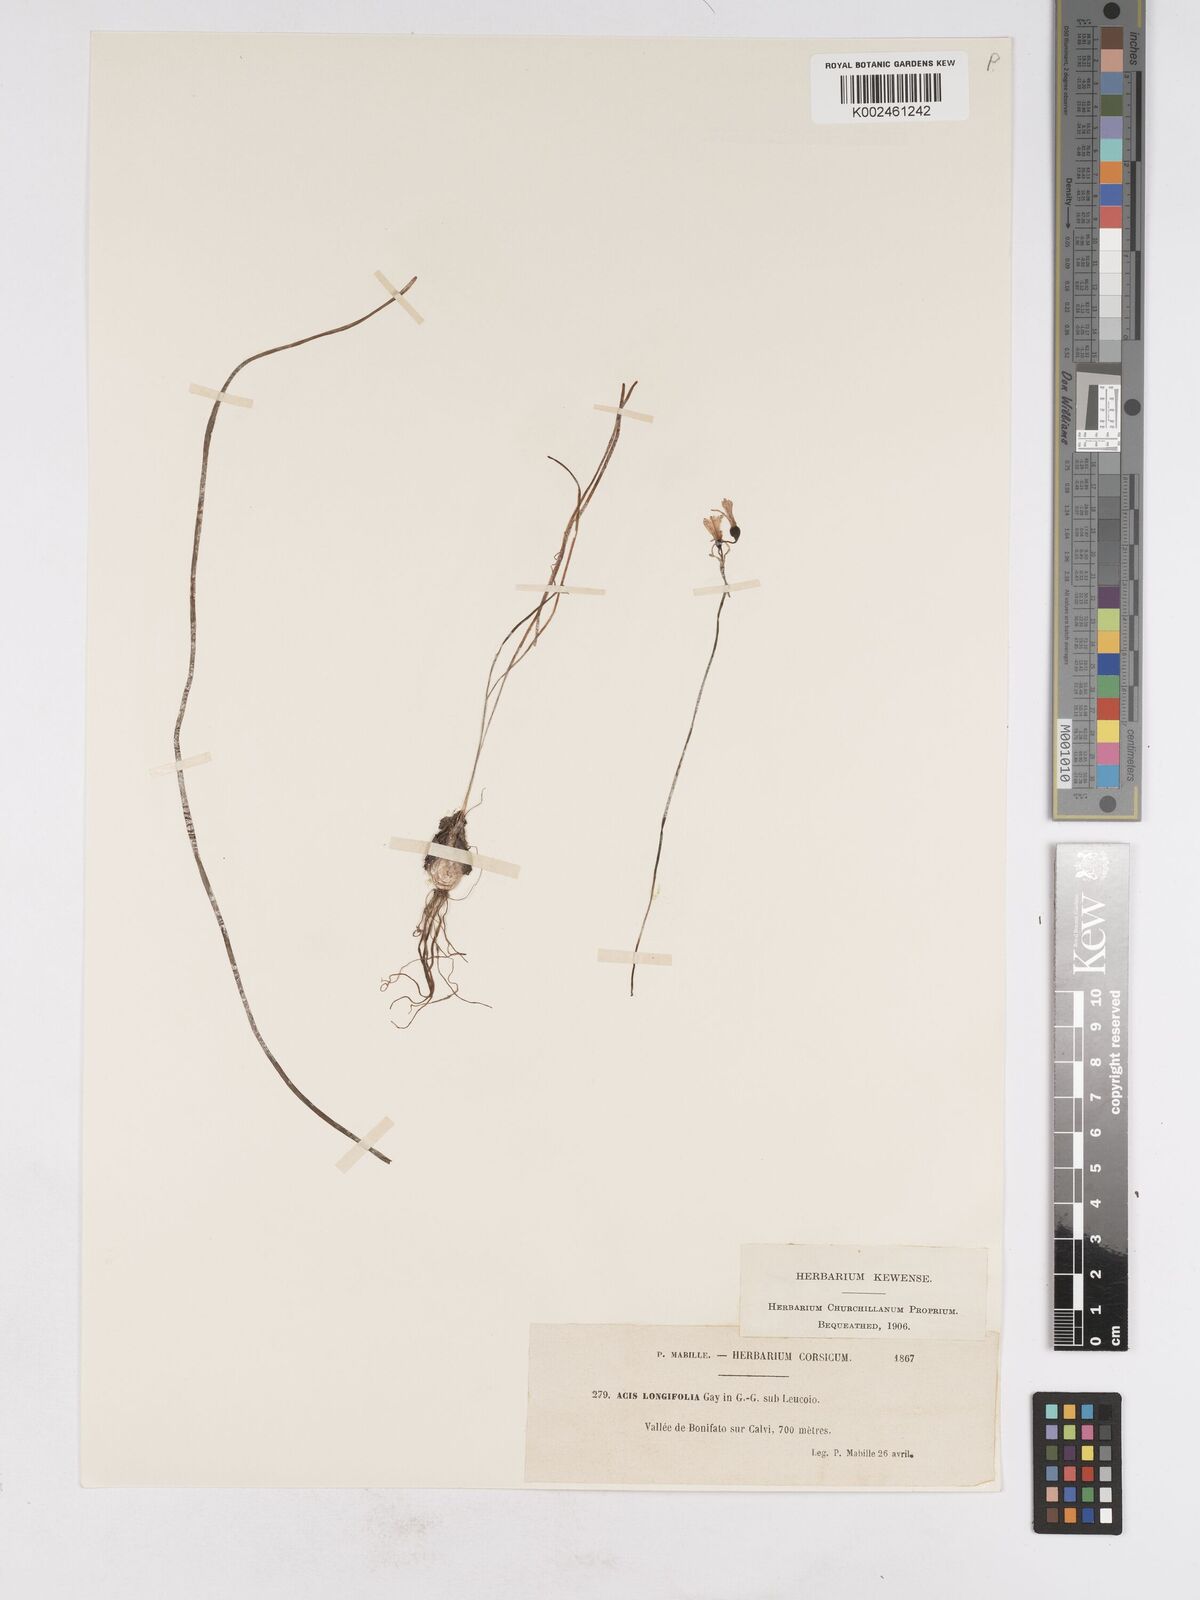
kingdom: Plantae
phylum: Tracheophyta
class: Liliopsida
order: Asparagales
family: Amaryllidaceae
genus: Acis
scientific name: Acis longifolia
